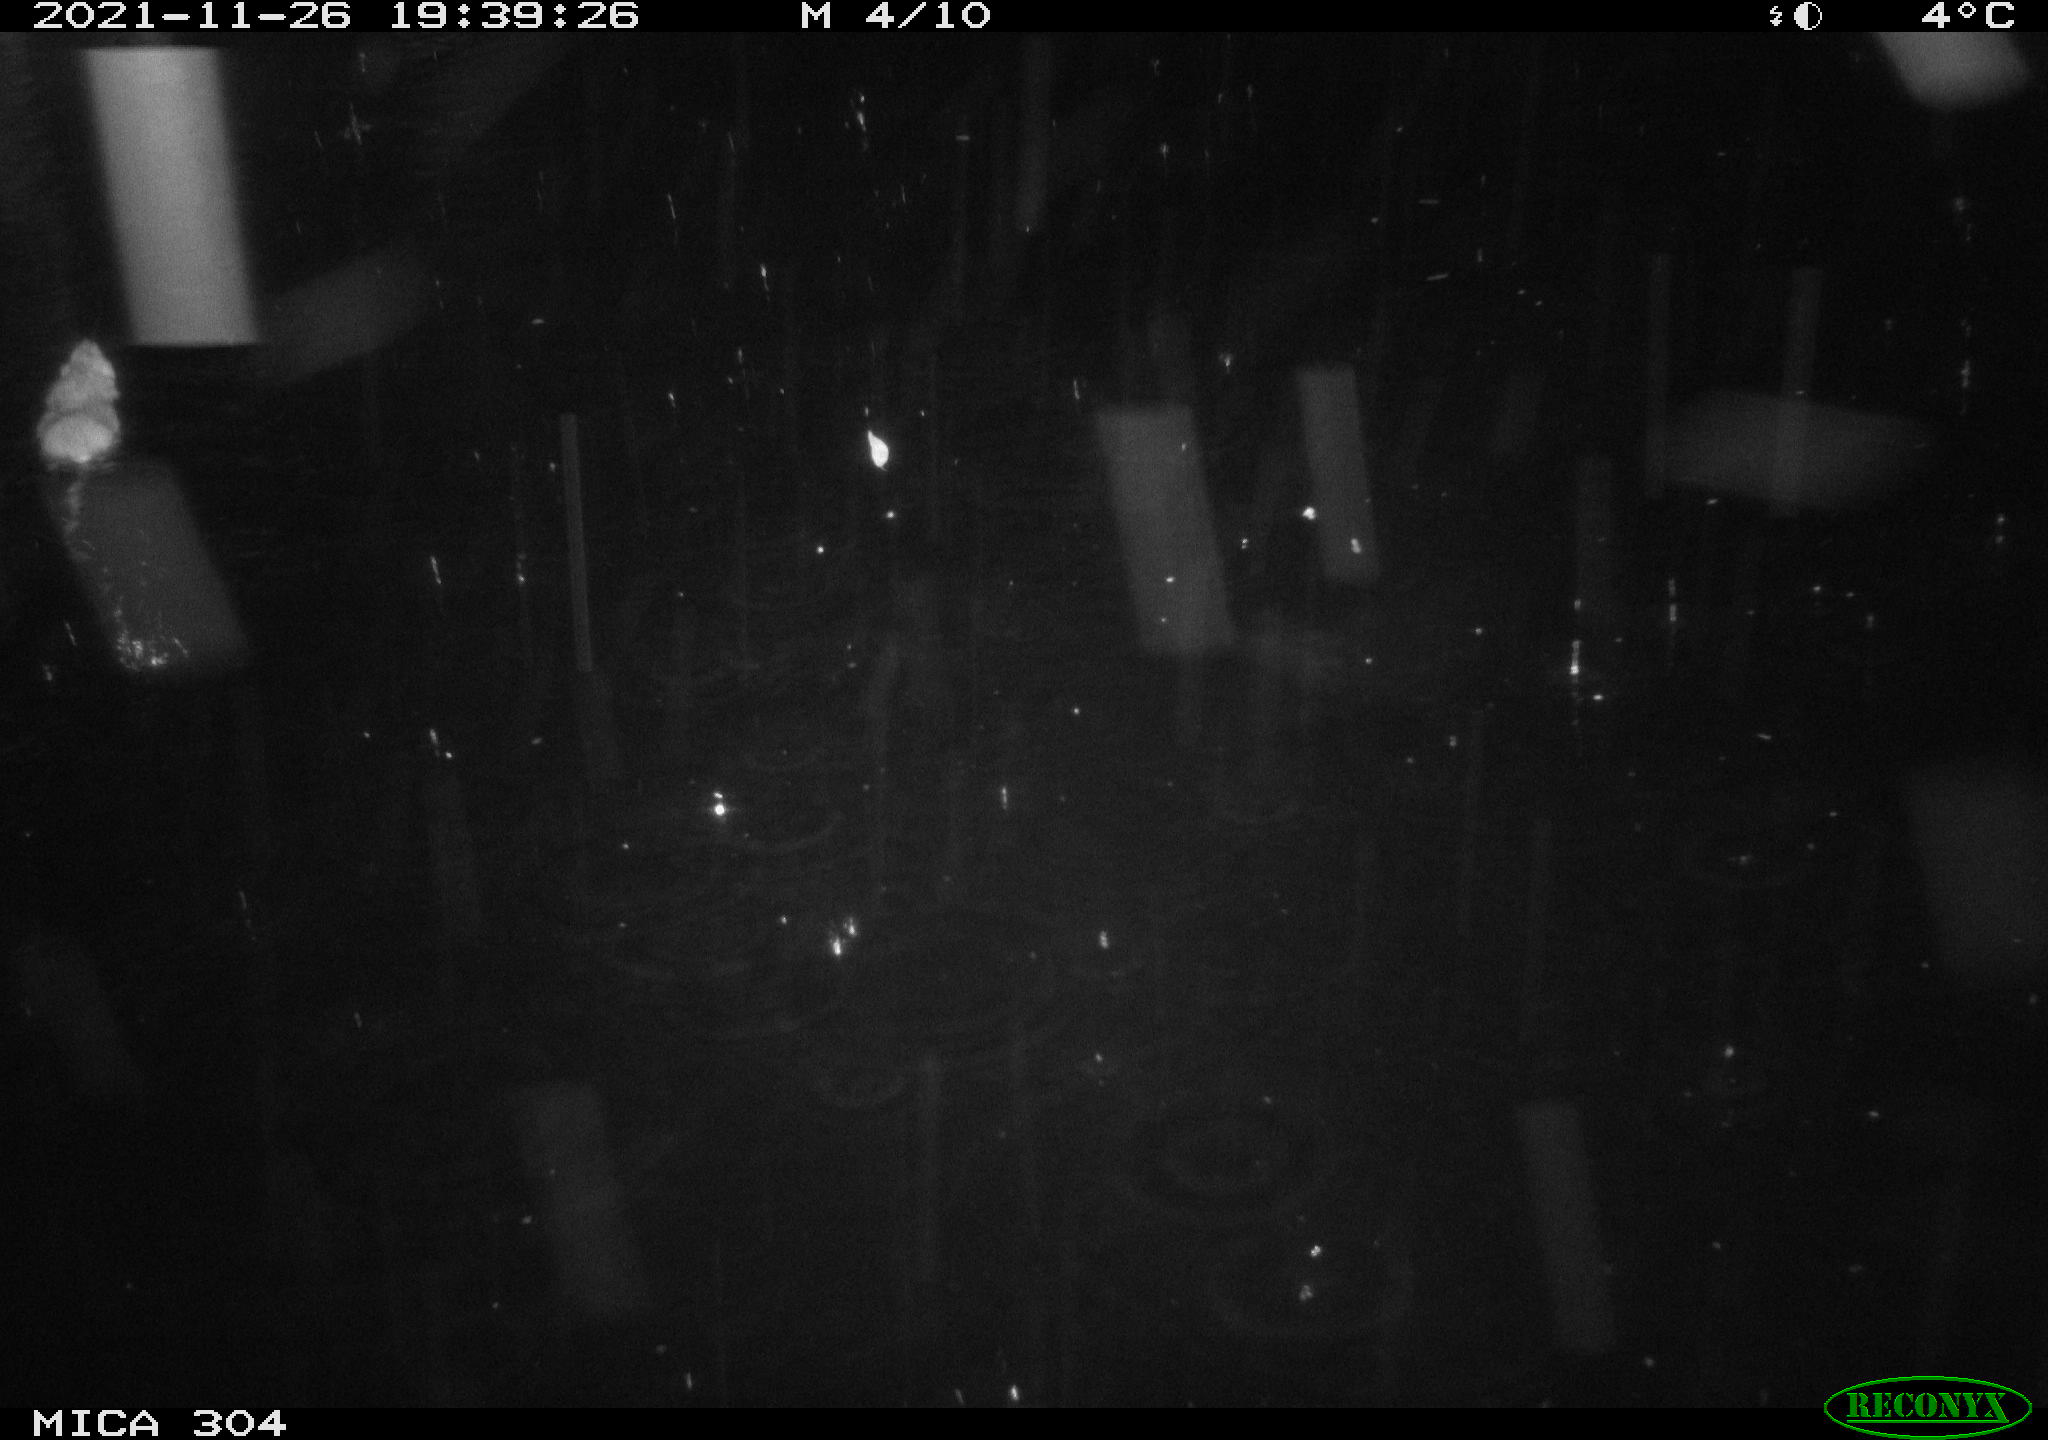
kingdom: Animalia
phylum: Chordata
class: Mammalia
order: Rodentia
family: Muridae
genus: Rattus
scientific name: Rattus norvegicus
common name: Brown rat
